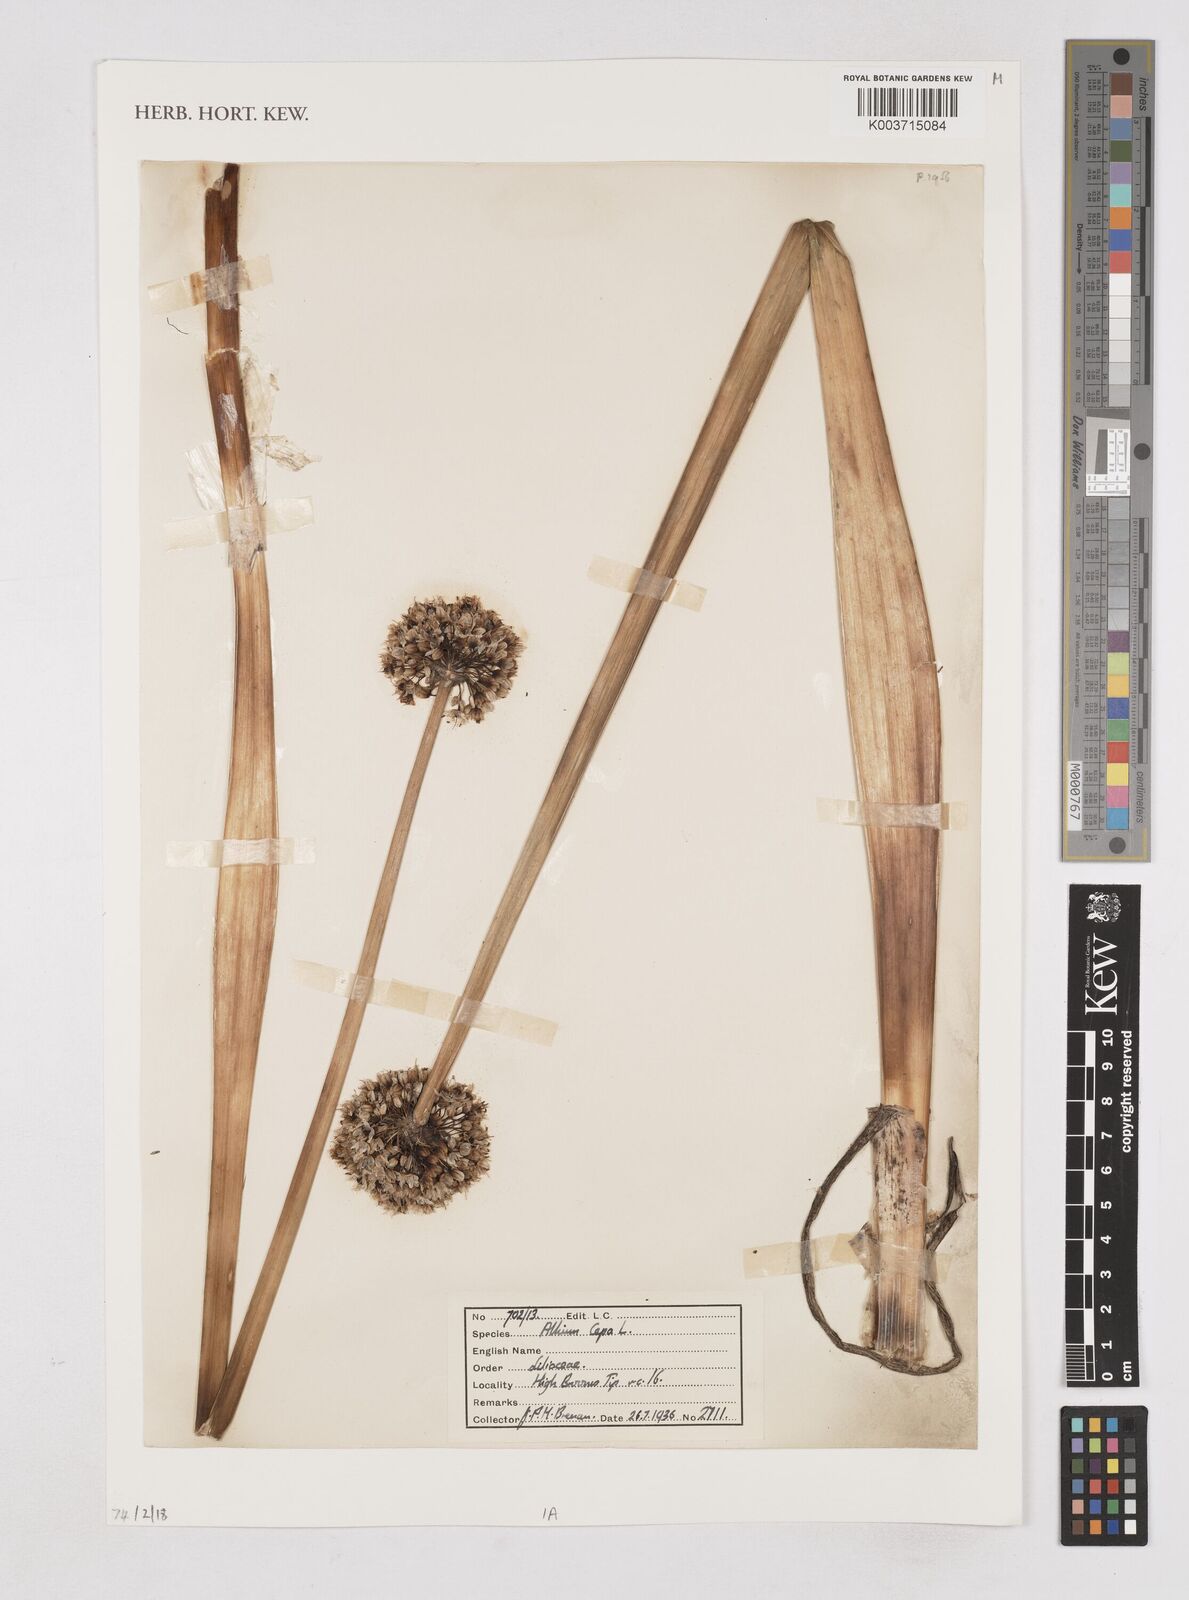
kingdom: Plantae
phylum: Tracheophyta
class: Liliopsida
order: Asparagales
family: Amaryllidaceae
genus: Allium
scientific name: Allium cepa
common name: Onion
